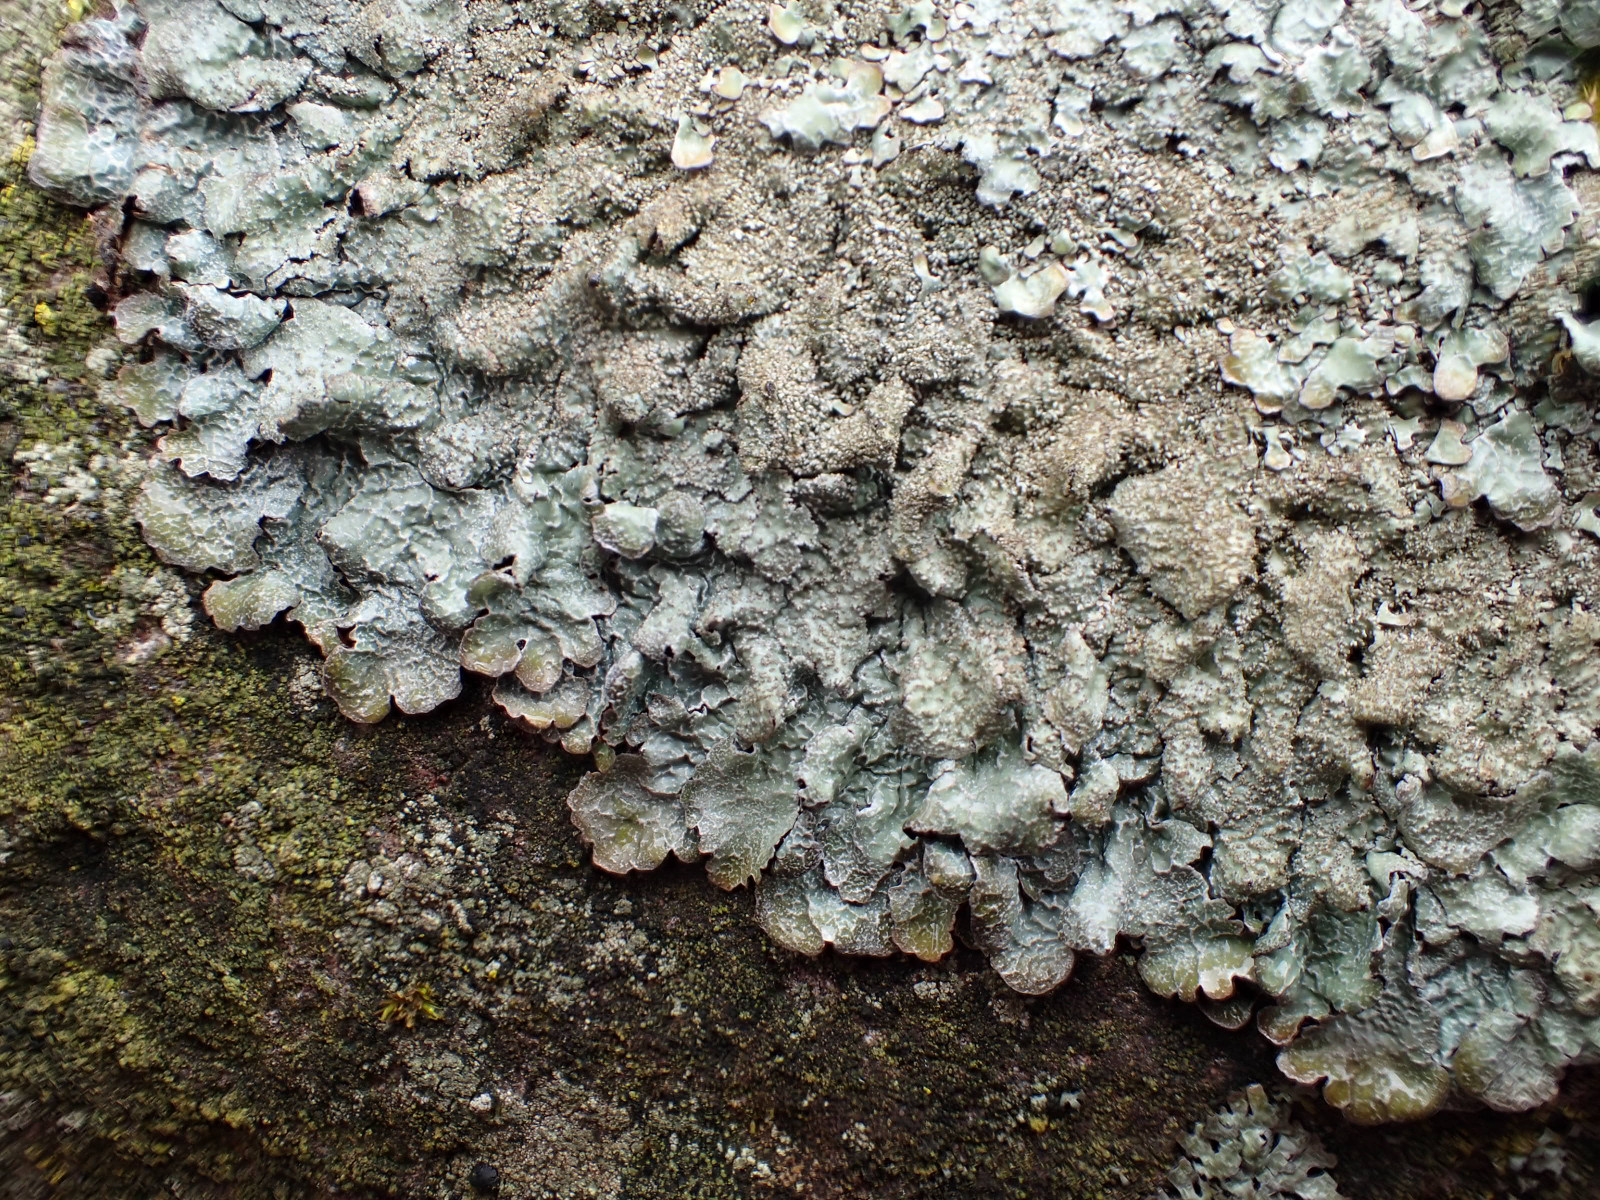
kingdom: Fungi
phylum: Ascomycota
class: Lecanoromycetes
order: Lecanorales
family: Parmeliaceae
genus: Parmelia
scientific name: Parmelia saxatilis
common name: farve-skållav
